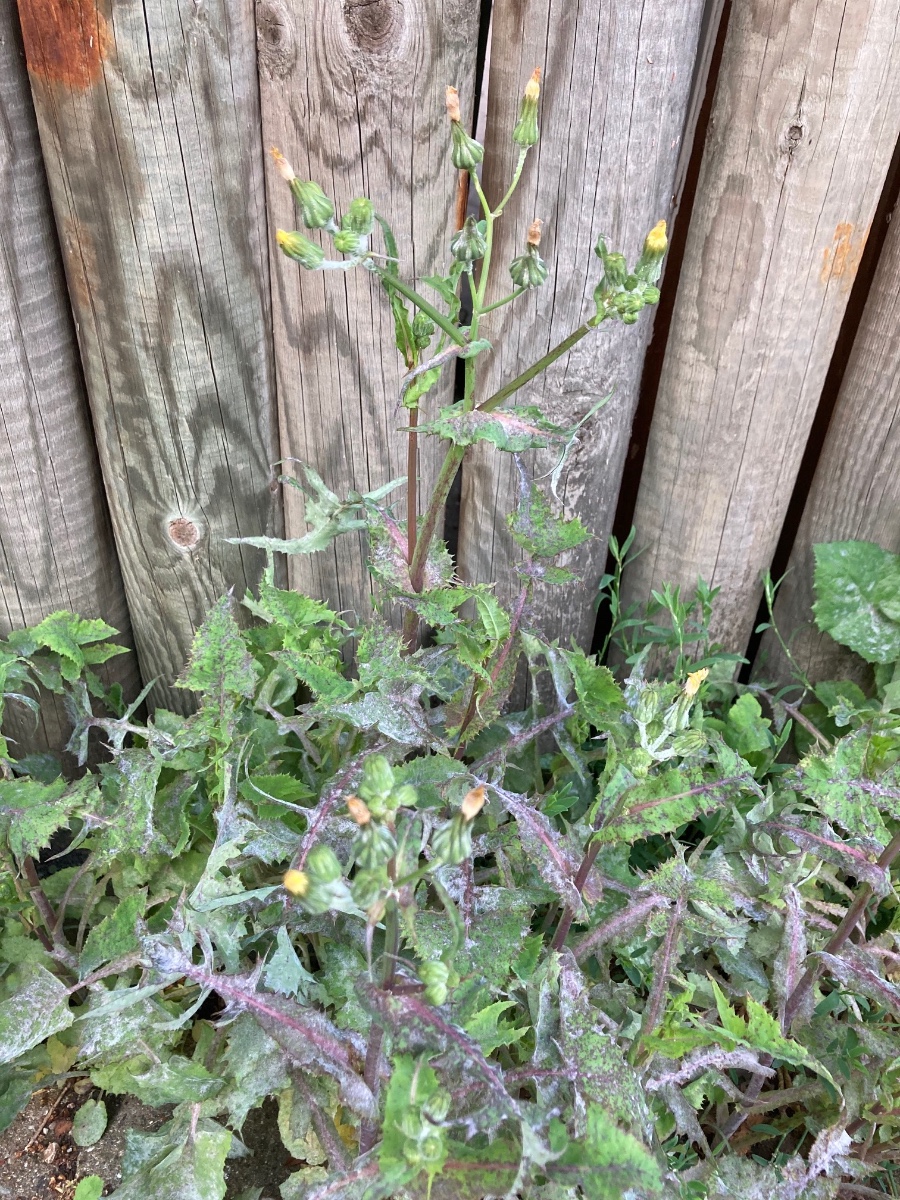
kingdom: Fungi
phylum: Ascomycota
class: Leotiomycetes
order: Helotiales
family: Erysiphaceae
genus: Golovinomyces
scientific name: Golovinomyces sonchicola
